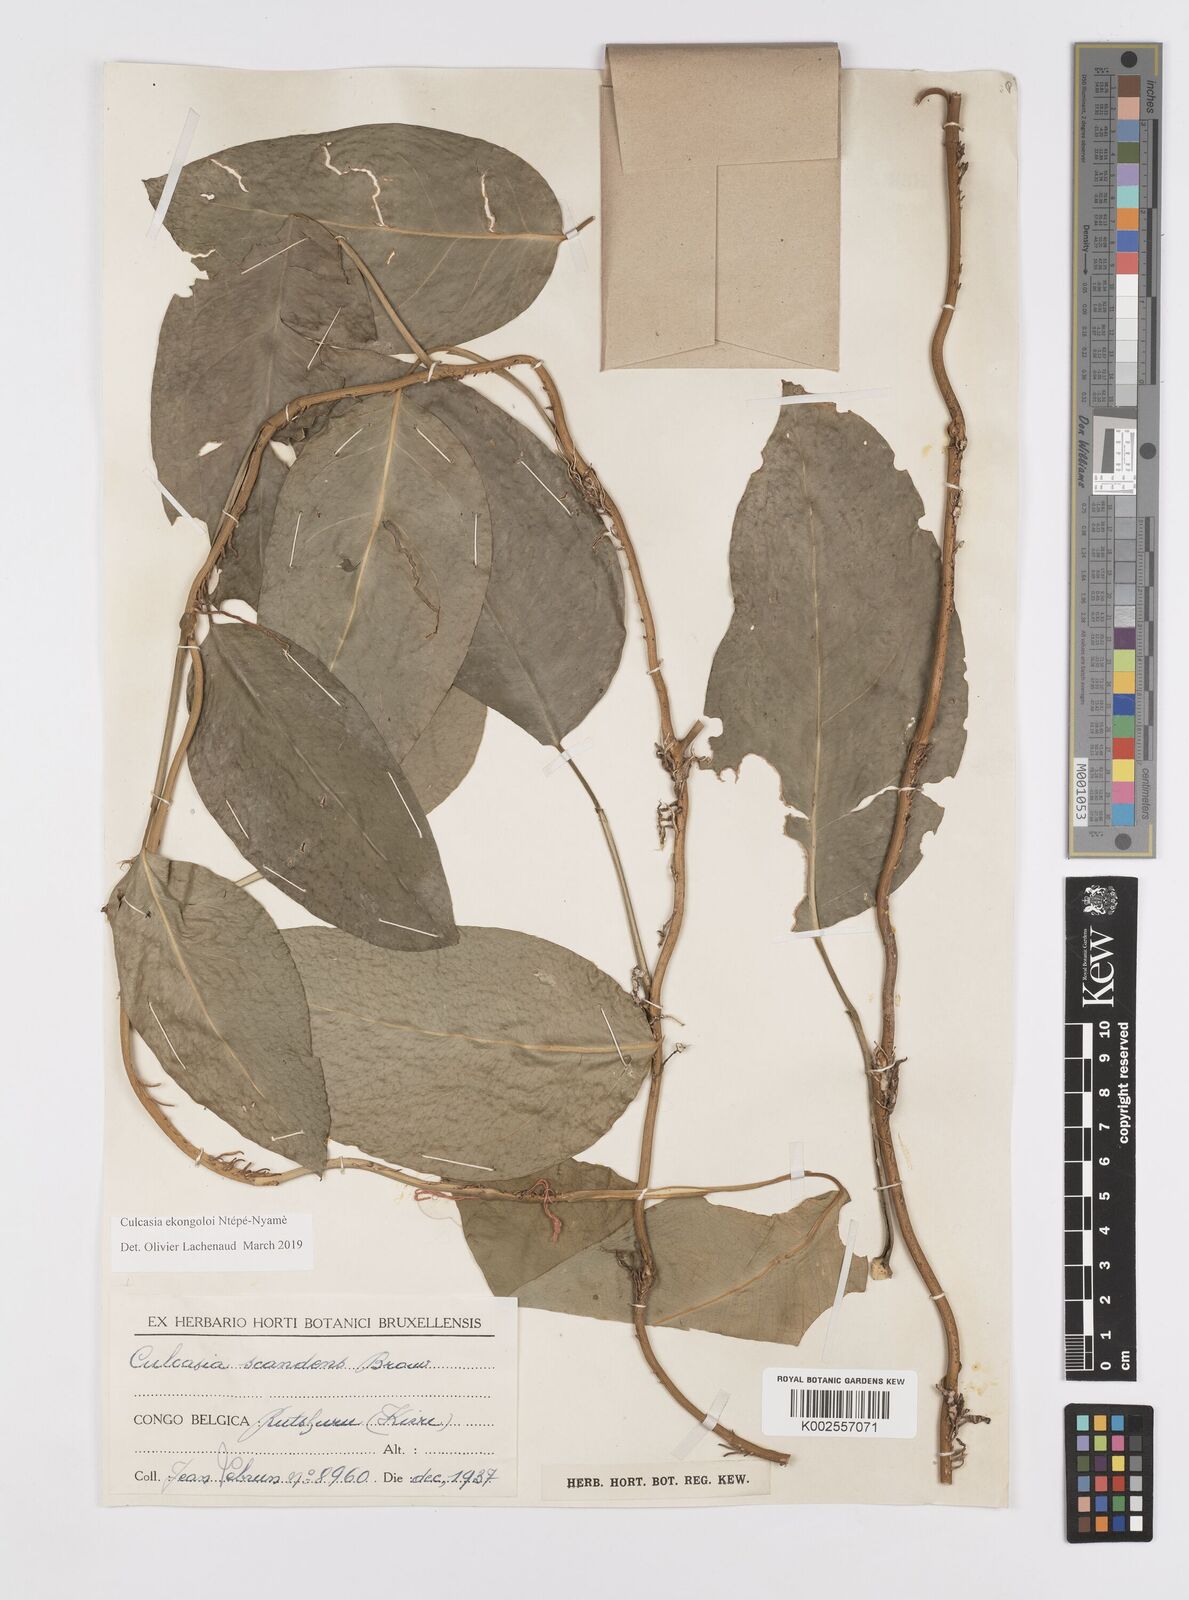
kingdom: Plantae
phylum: Tracheophyta
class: Liliopsida
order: Alismatales
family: Araceae
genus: Culcasia
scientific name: Culcasia ekongoloi
